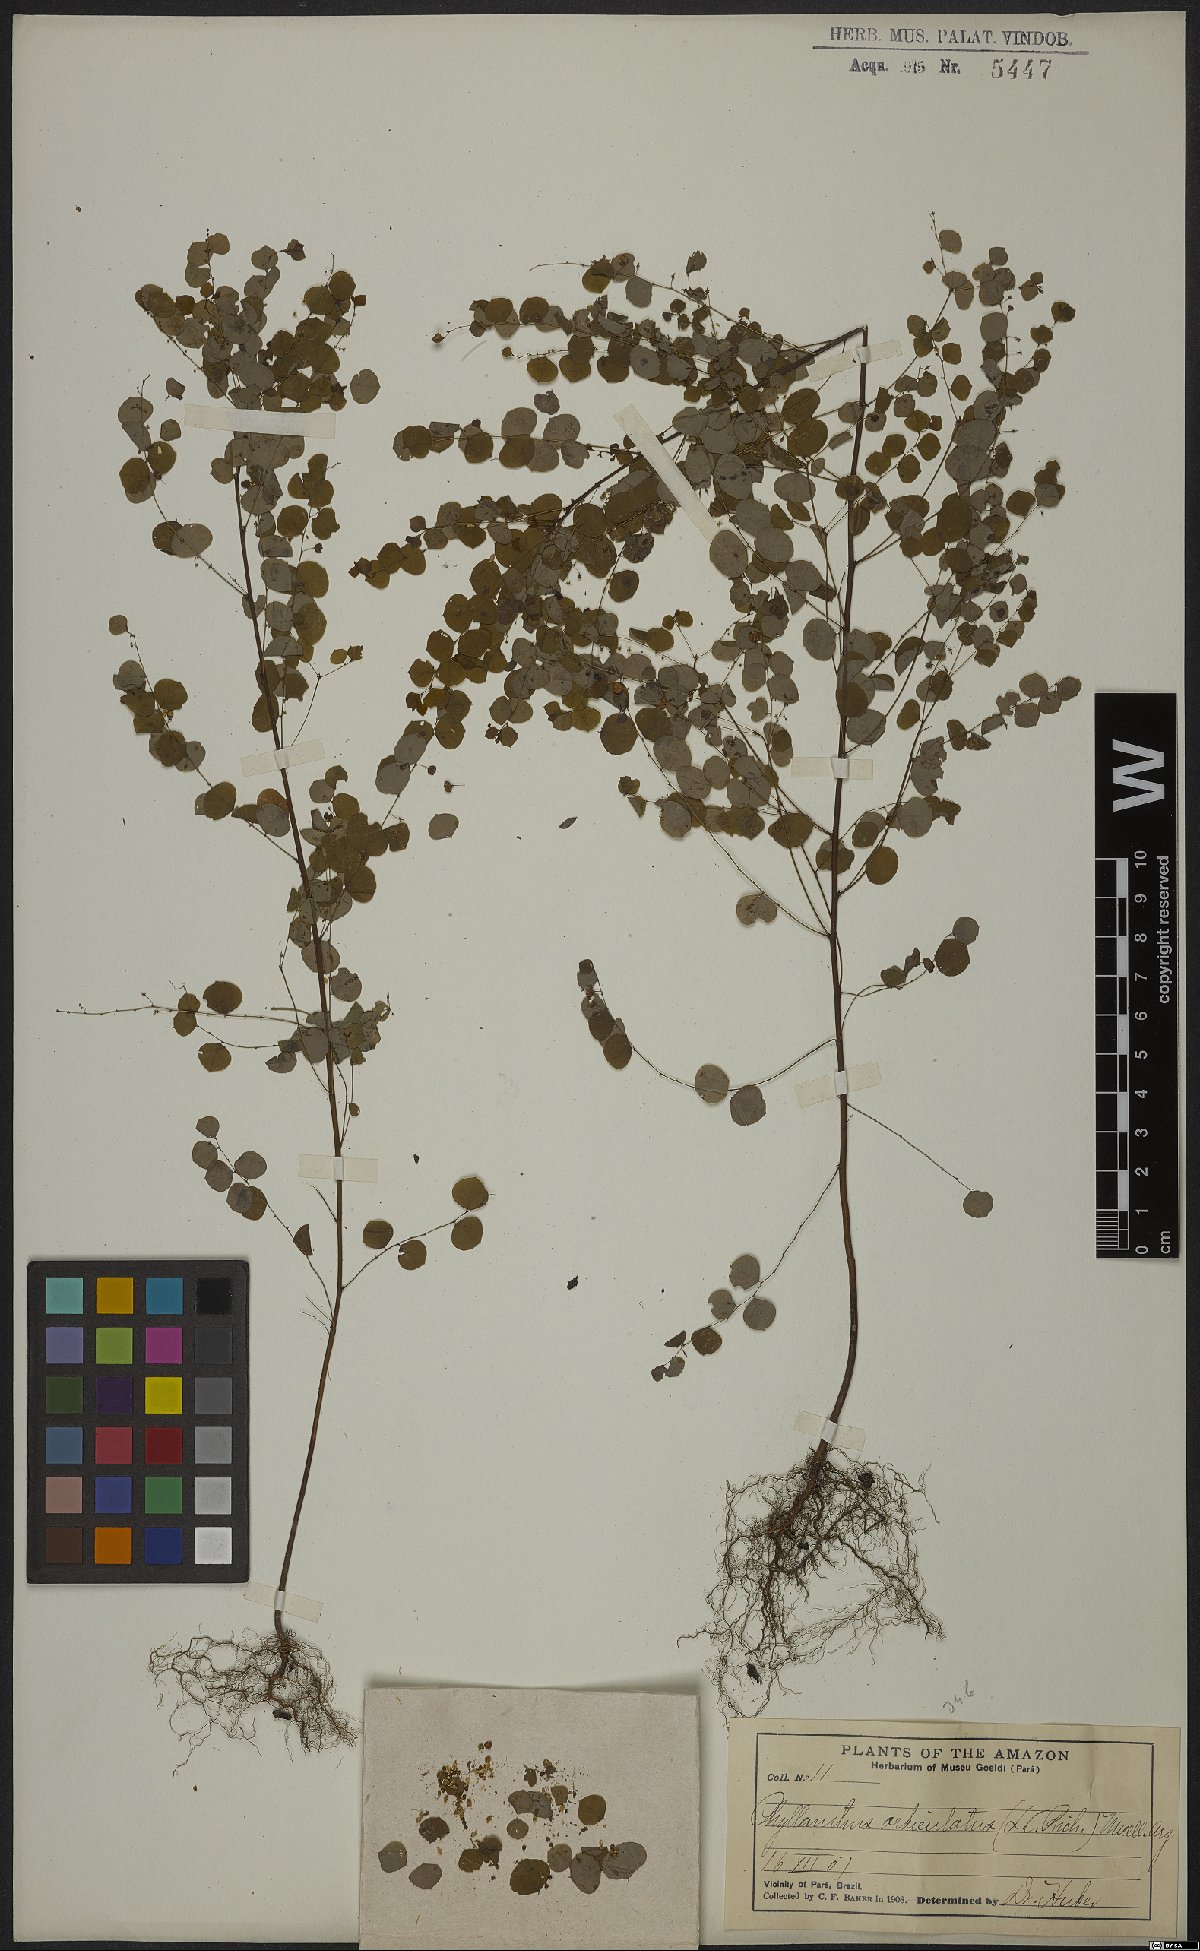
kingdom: Plantae
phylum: Tracheophyta
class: Magnoliopsida
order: Malpighiales
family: Phyllanthaceae
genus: Phyllanthus
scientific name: Phyllanthus orbiculatus
